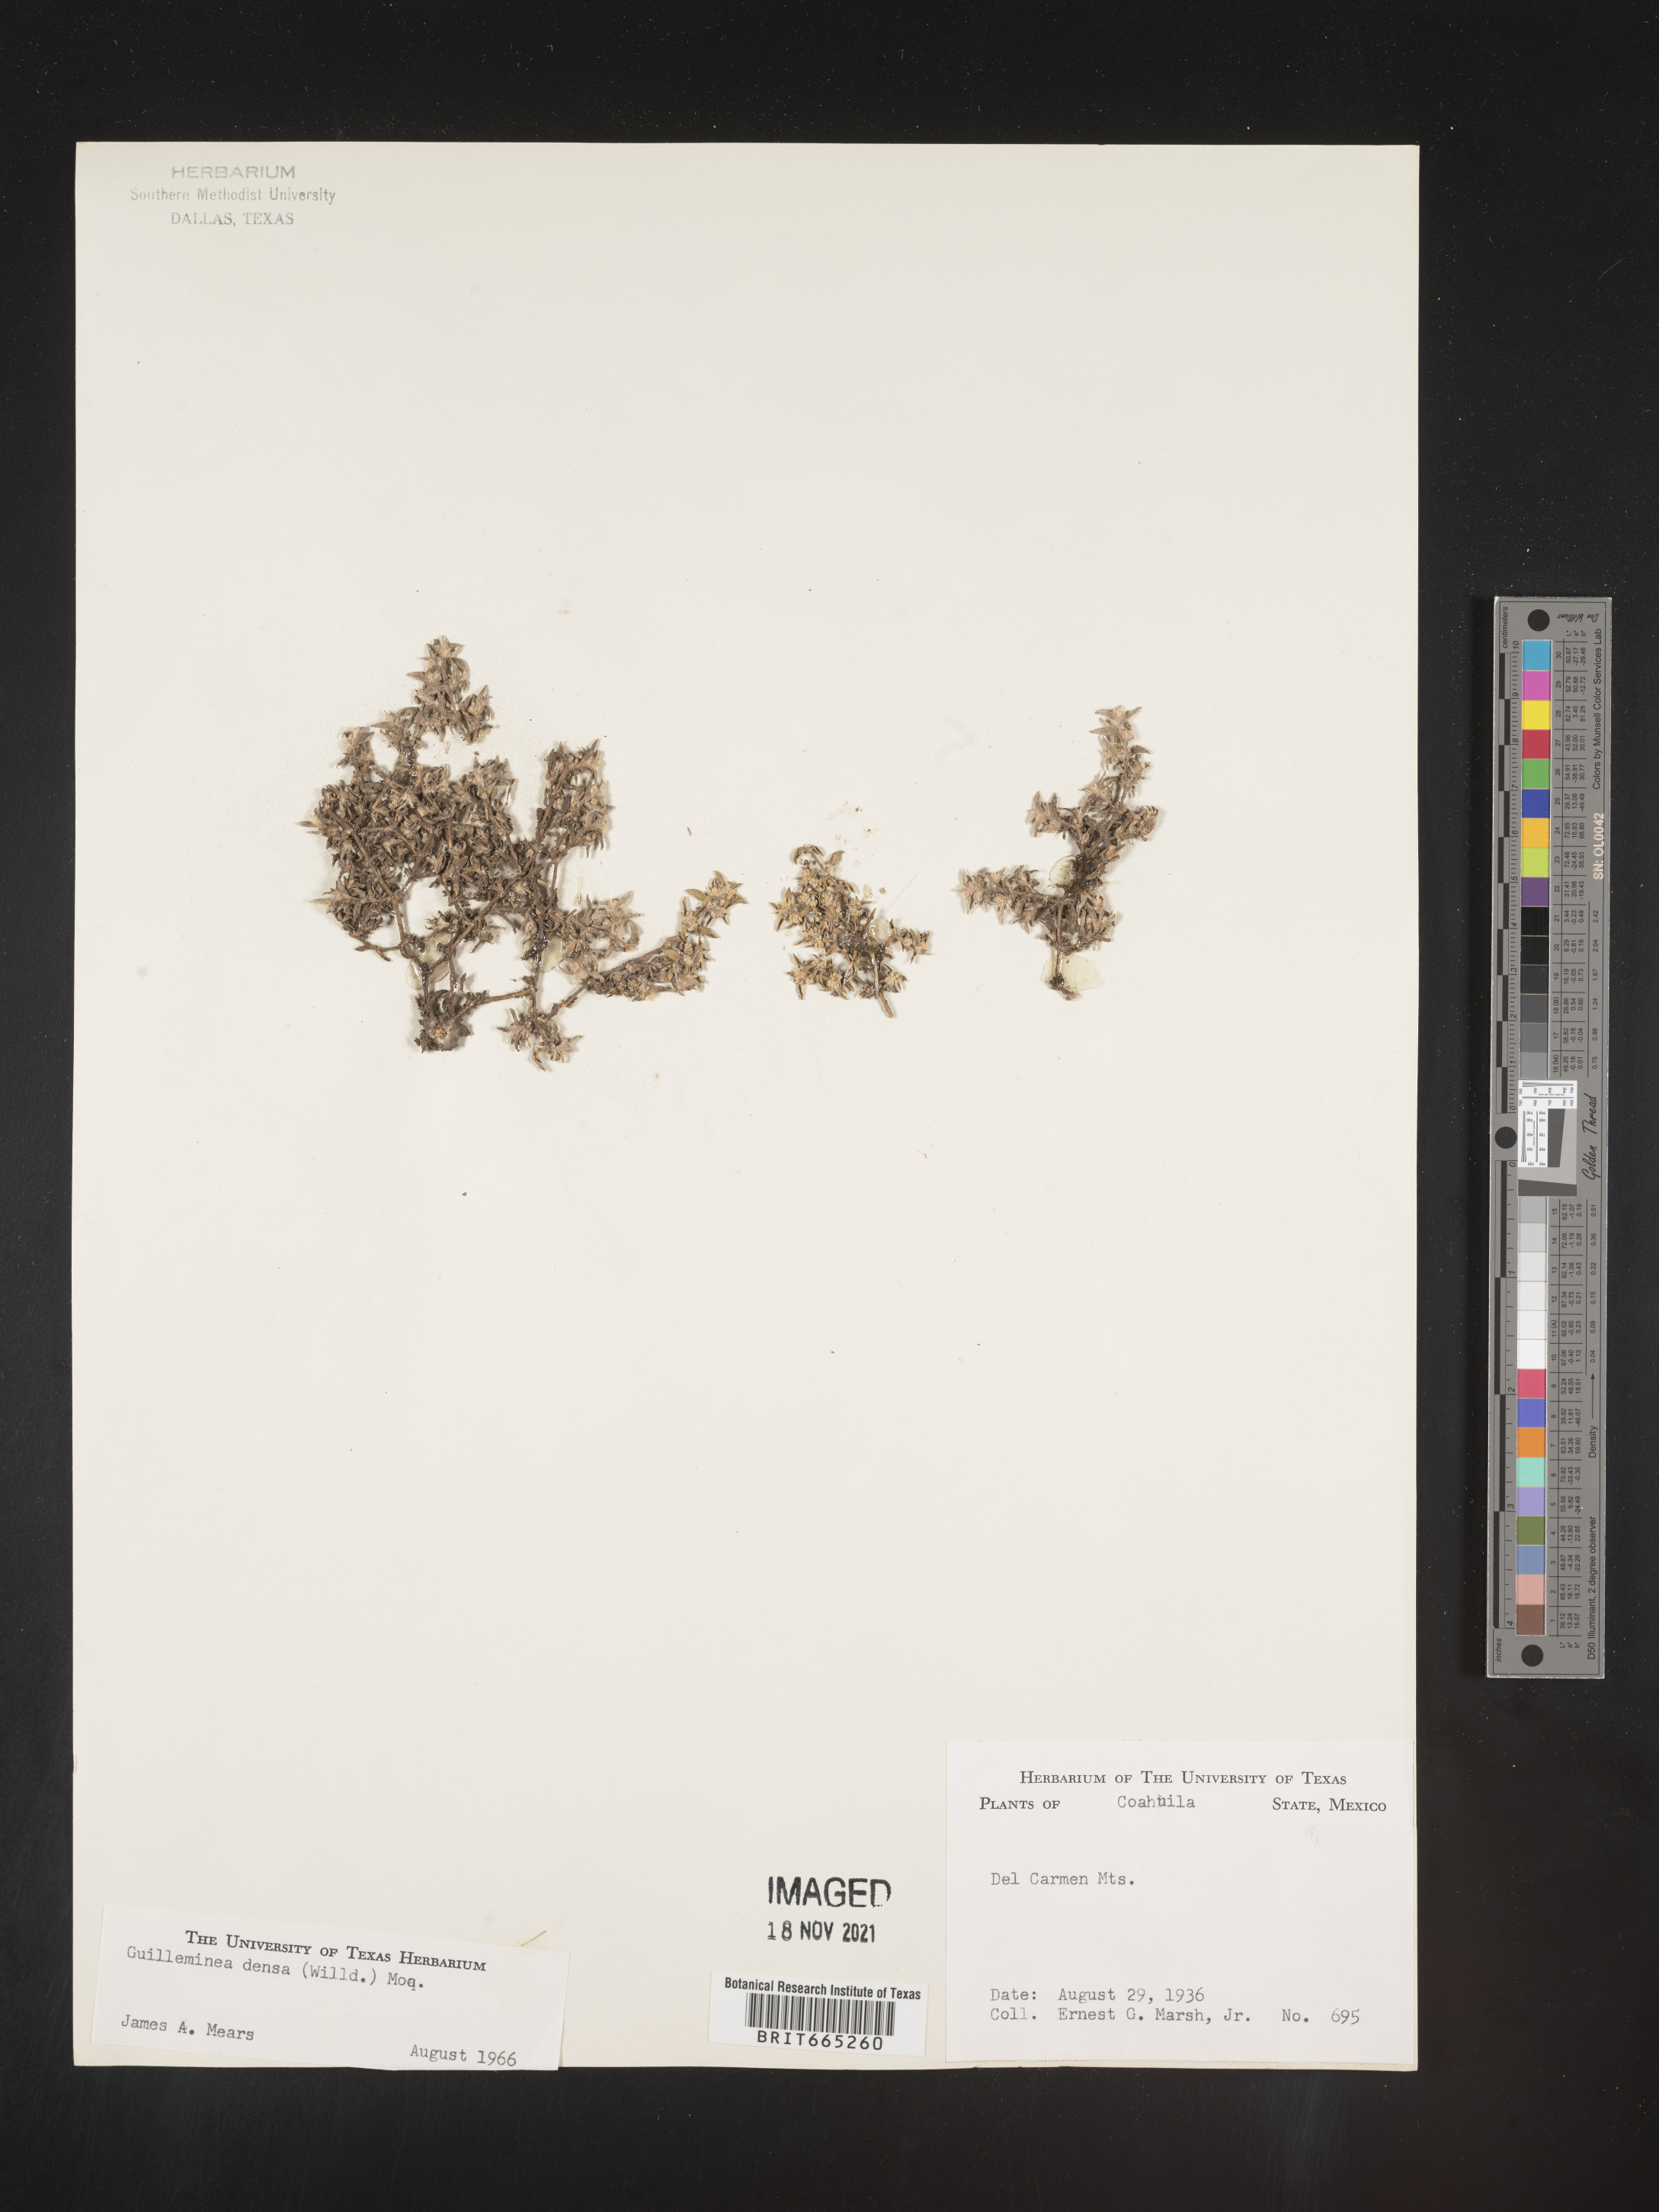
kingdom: Plantae
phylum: Tracheophyta
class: Magnoliopsida
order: Caryophyllales
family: Amaranthaceae
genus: Guilleminea
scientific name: Guilleminea densa
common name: Small matweed
